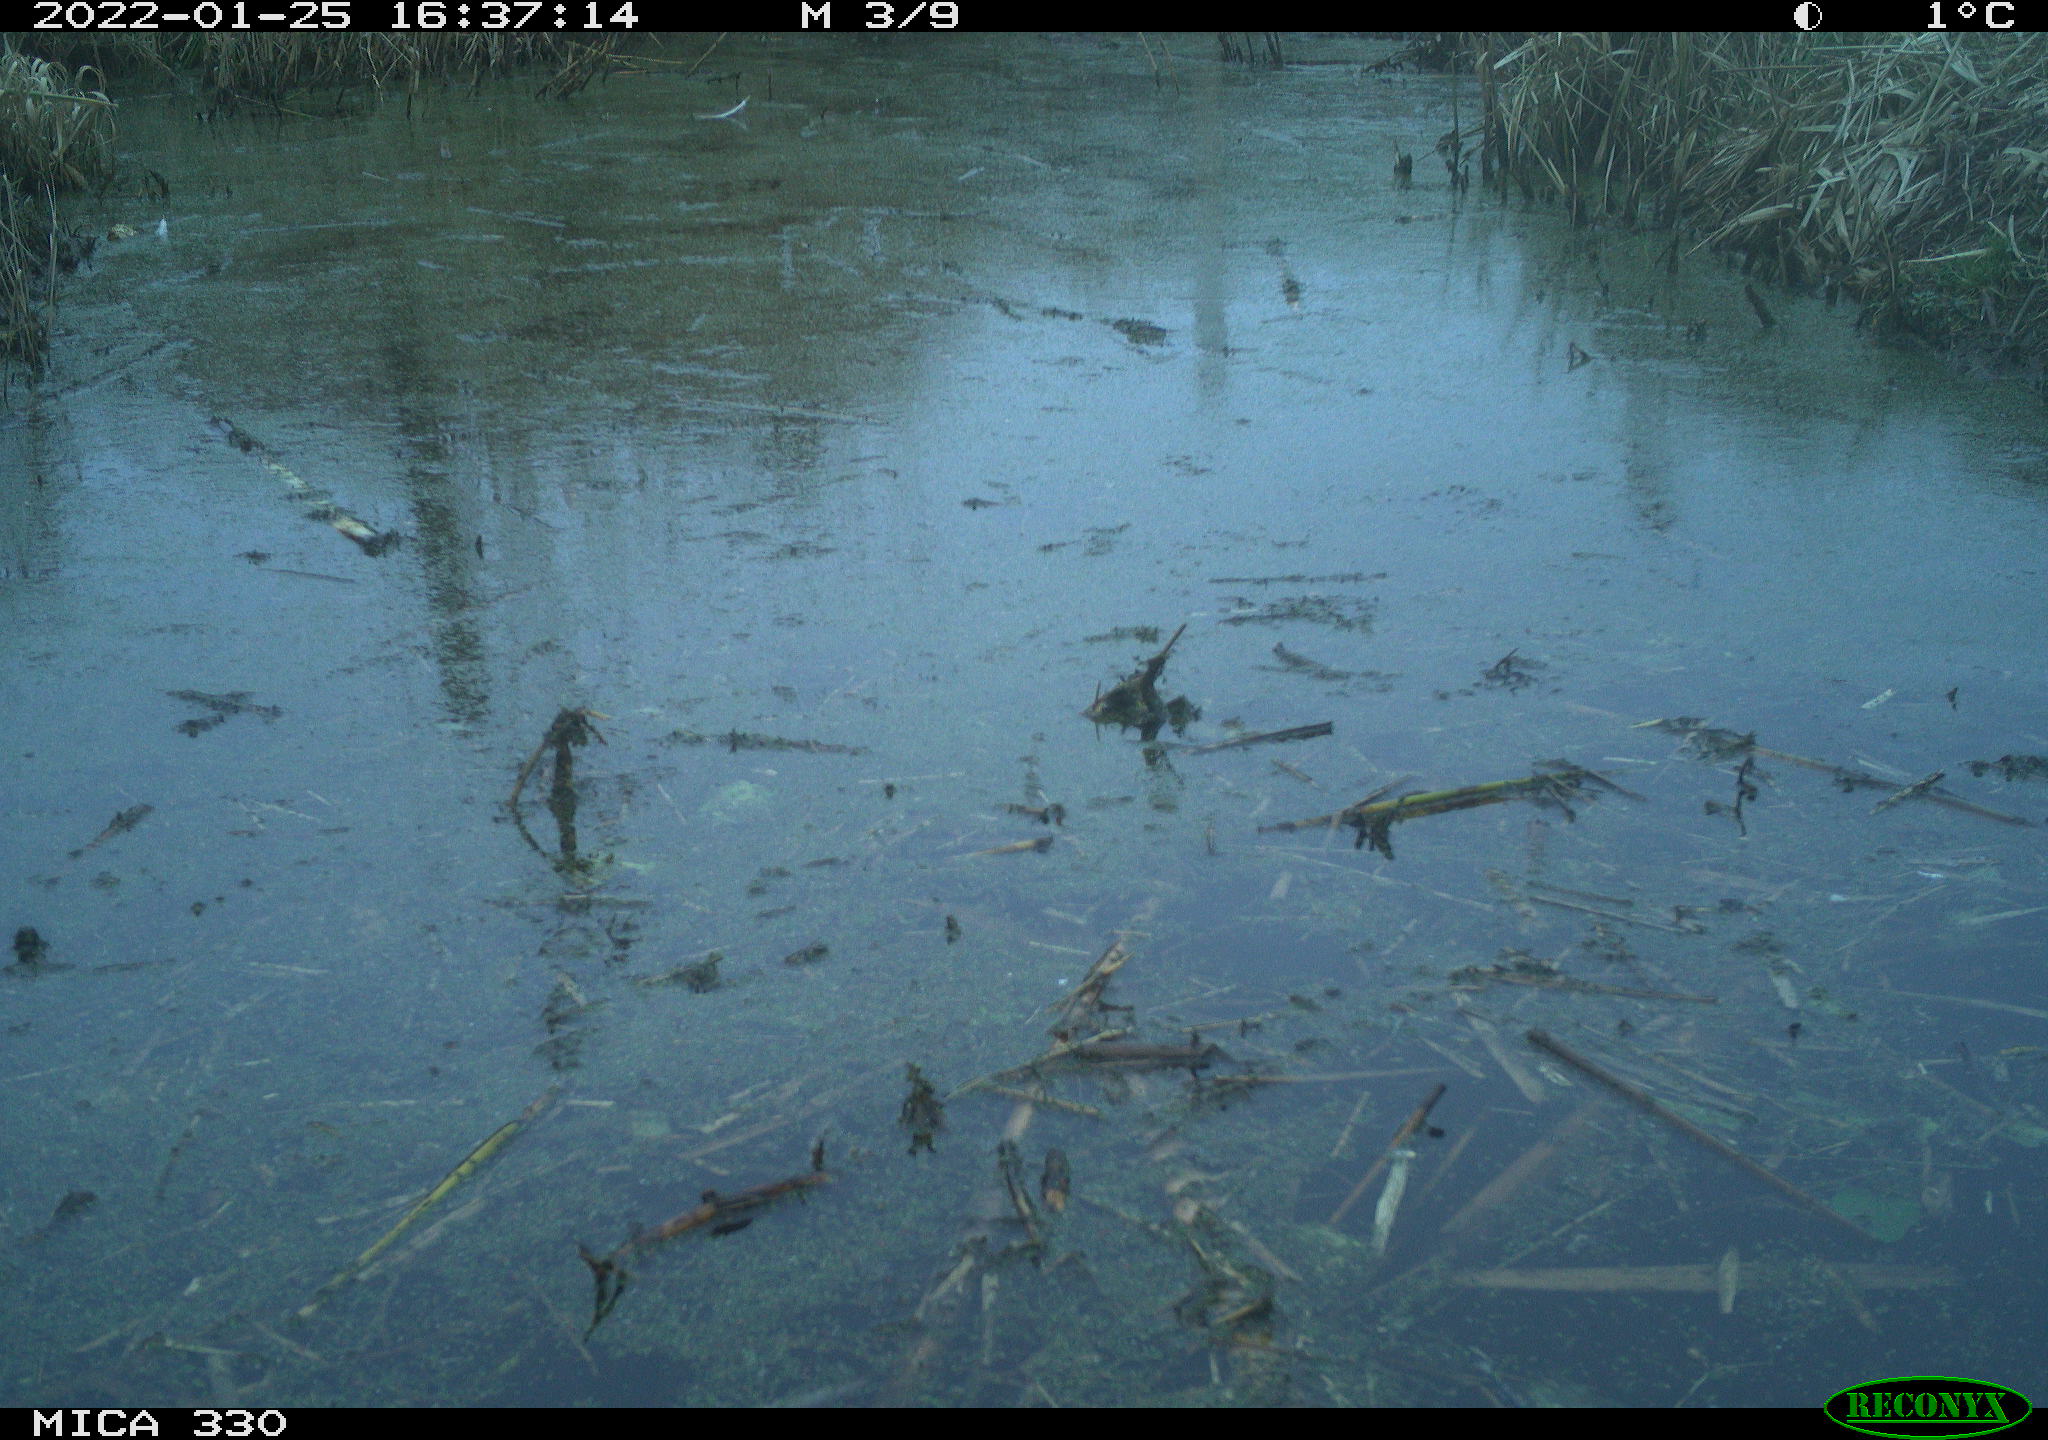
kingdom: Animalia
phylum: Chordata
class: Aves
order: Gruiformes
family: Rallidae
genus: Gallinula
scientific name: Gallinula chloropus
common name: Common moorhen
